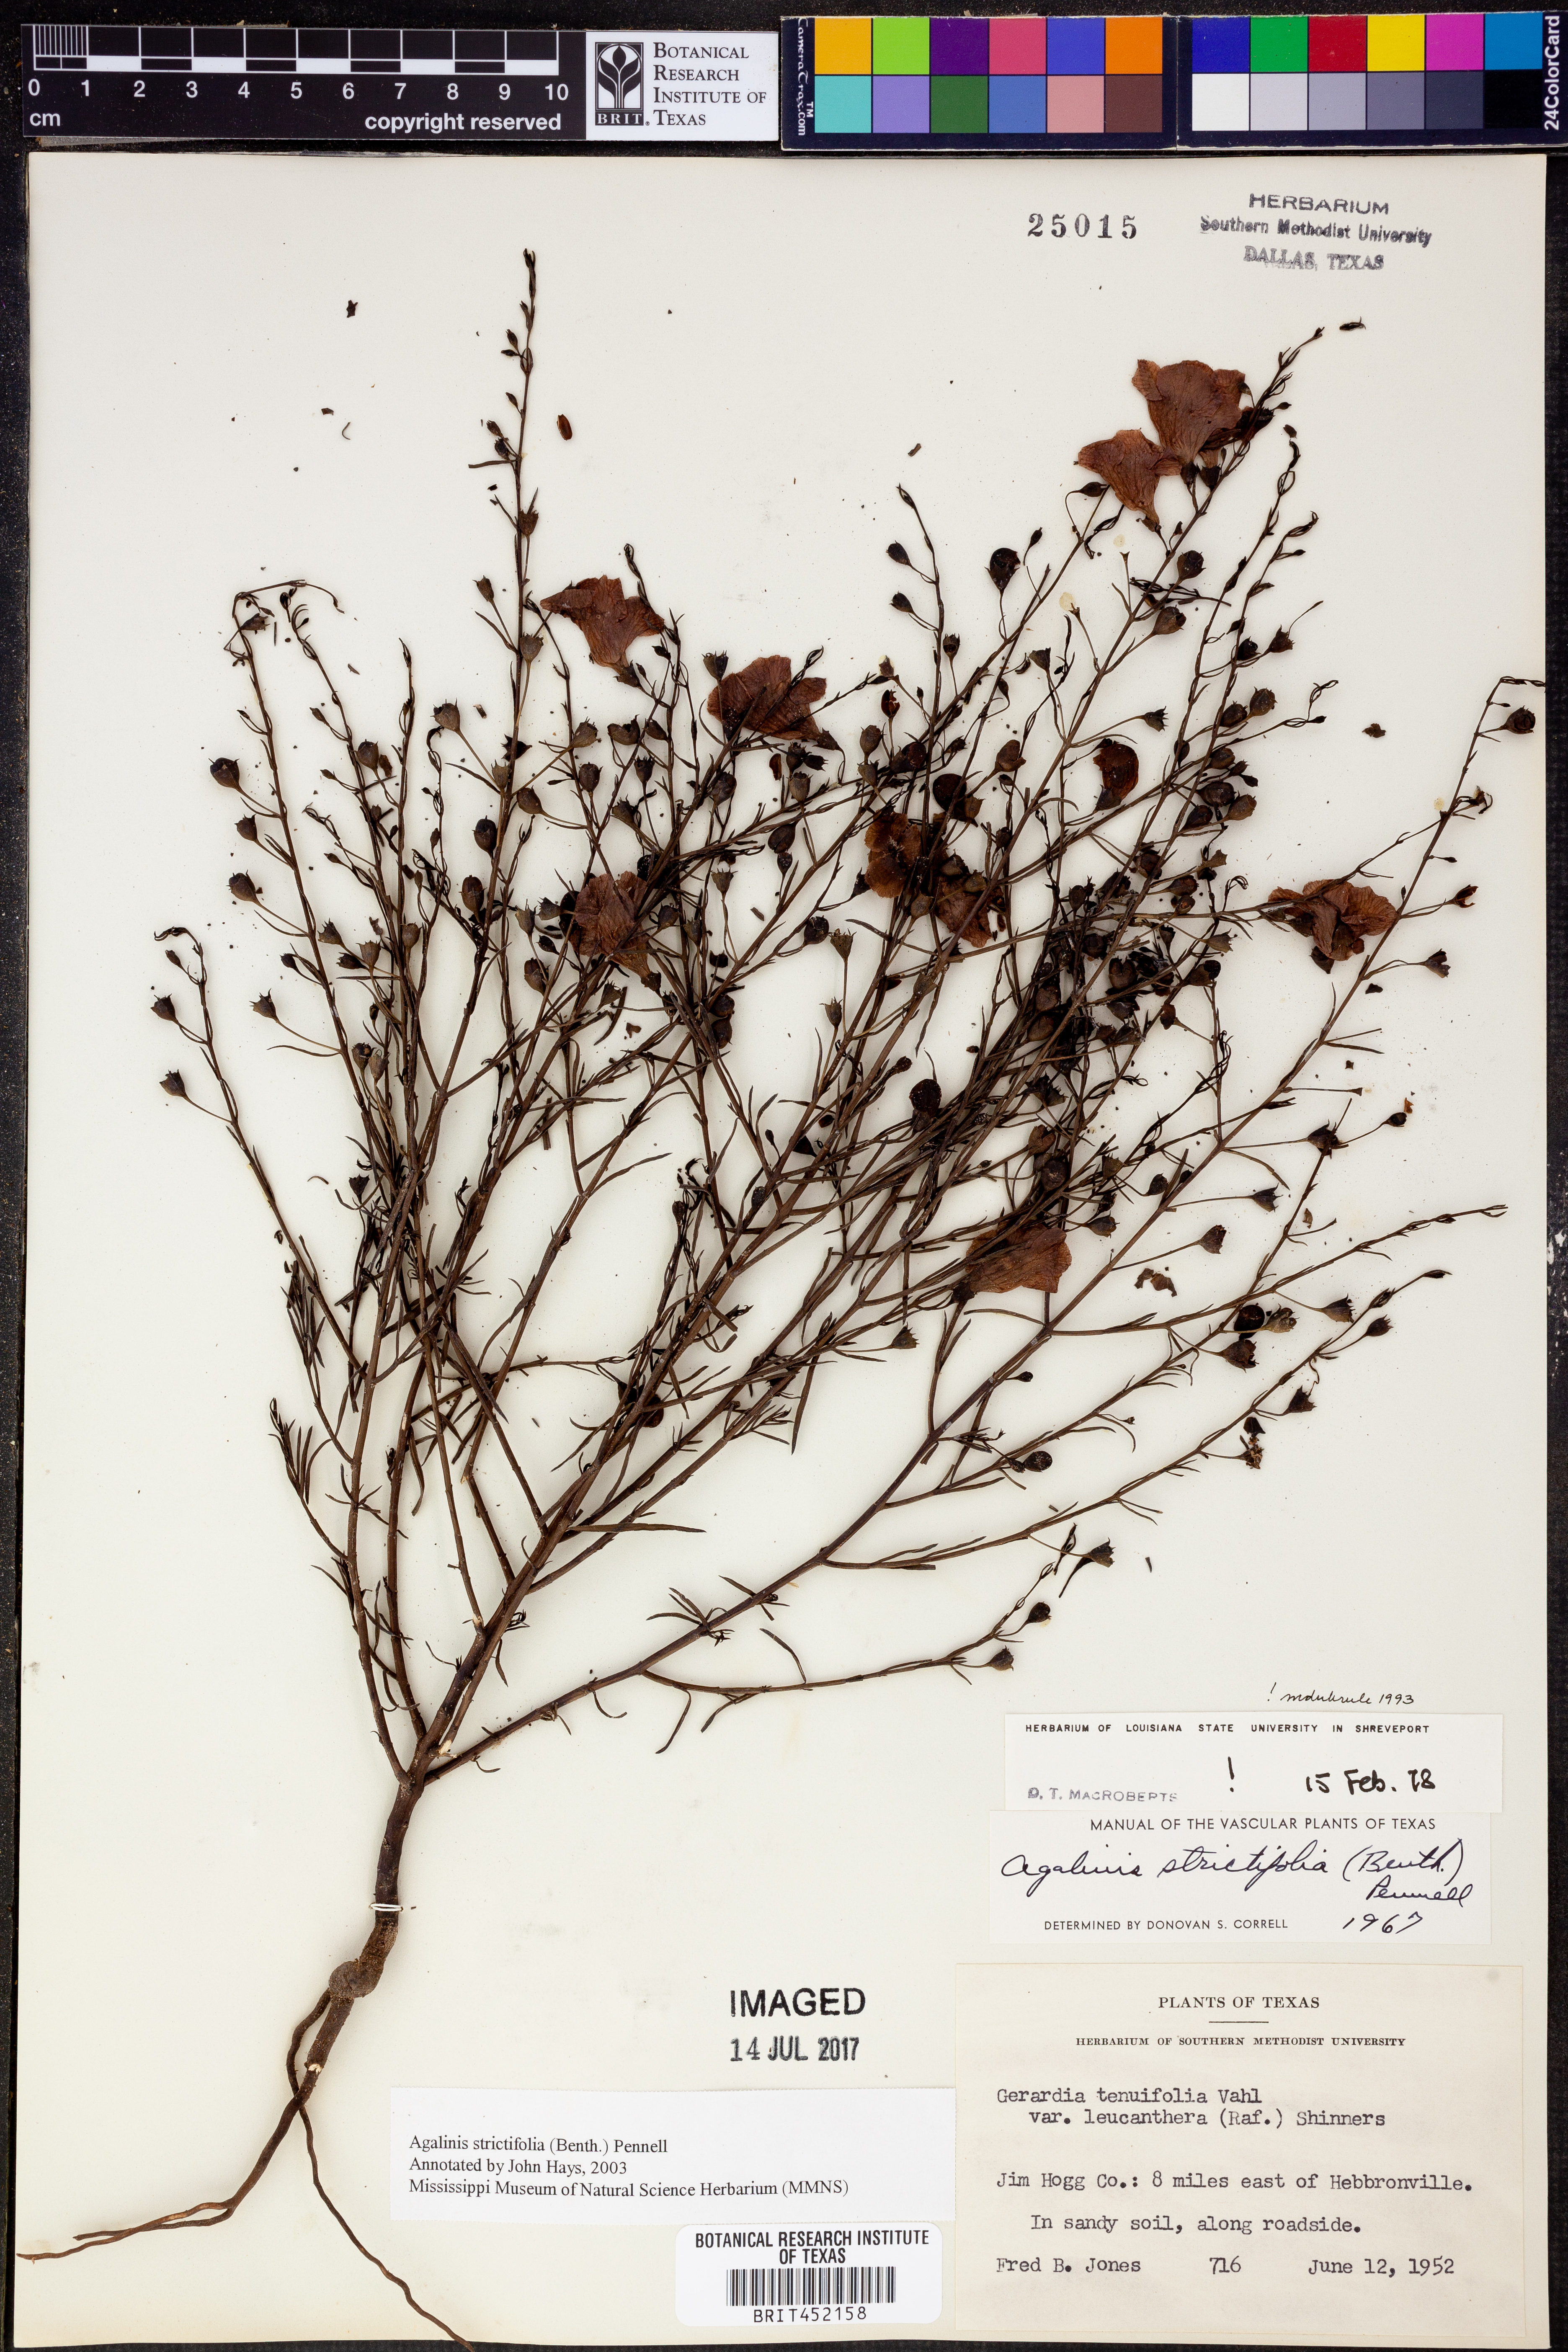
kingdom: Plantae
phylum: Tracheophyta
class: Magnoliopsida
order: Lamiales
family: Orobanchaceae
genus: Agalinis
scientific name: Agalinis strictifolia
